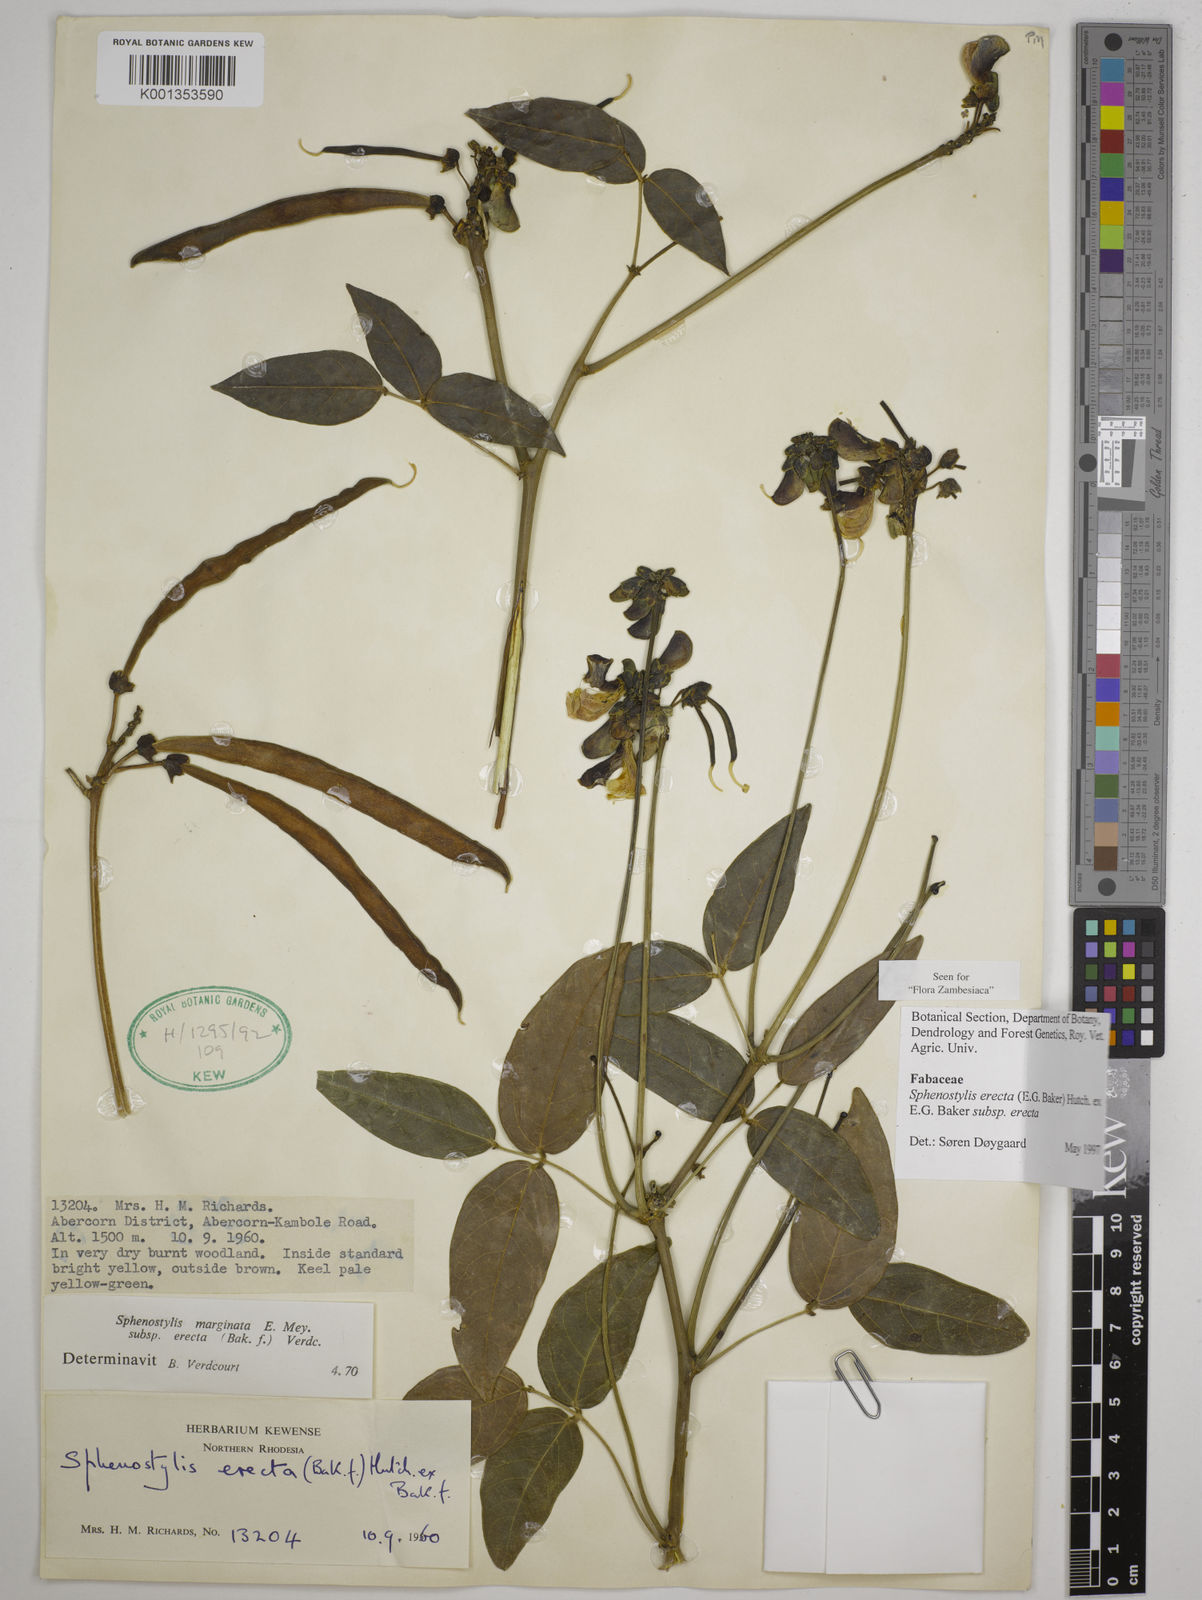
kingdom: Plantae
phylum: Tracheophyta
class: Magnoliopsida
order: Fabales
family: Fabaceae
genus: Sphenostylis
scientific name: Sphenostylis erecta
